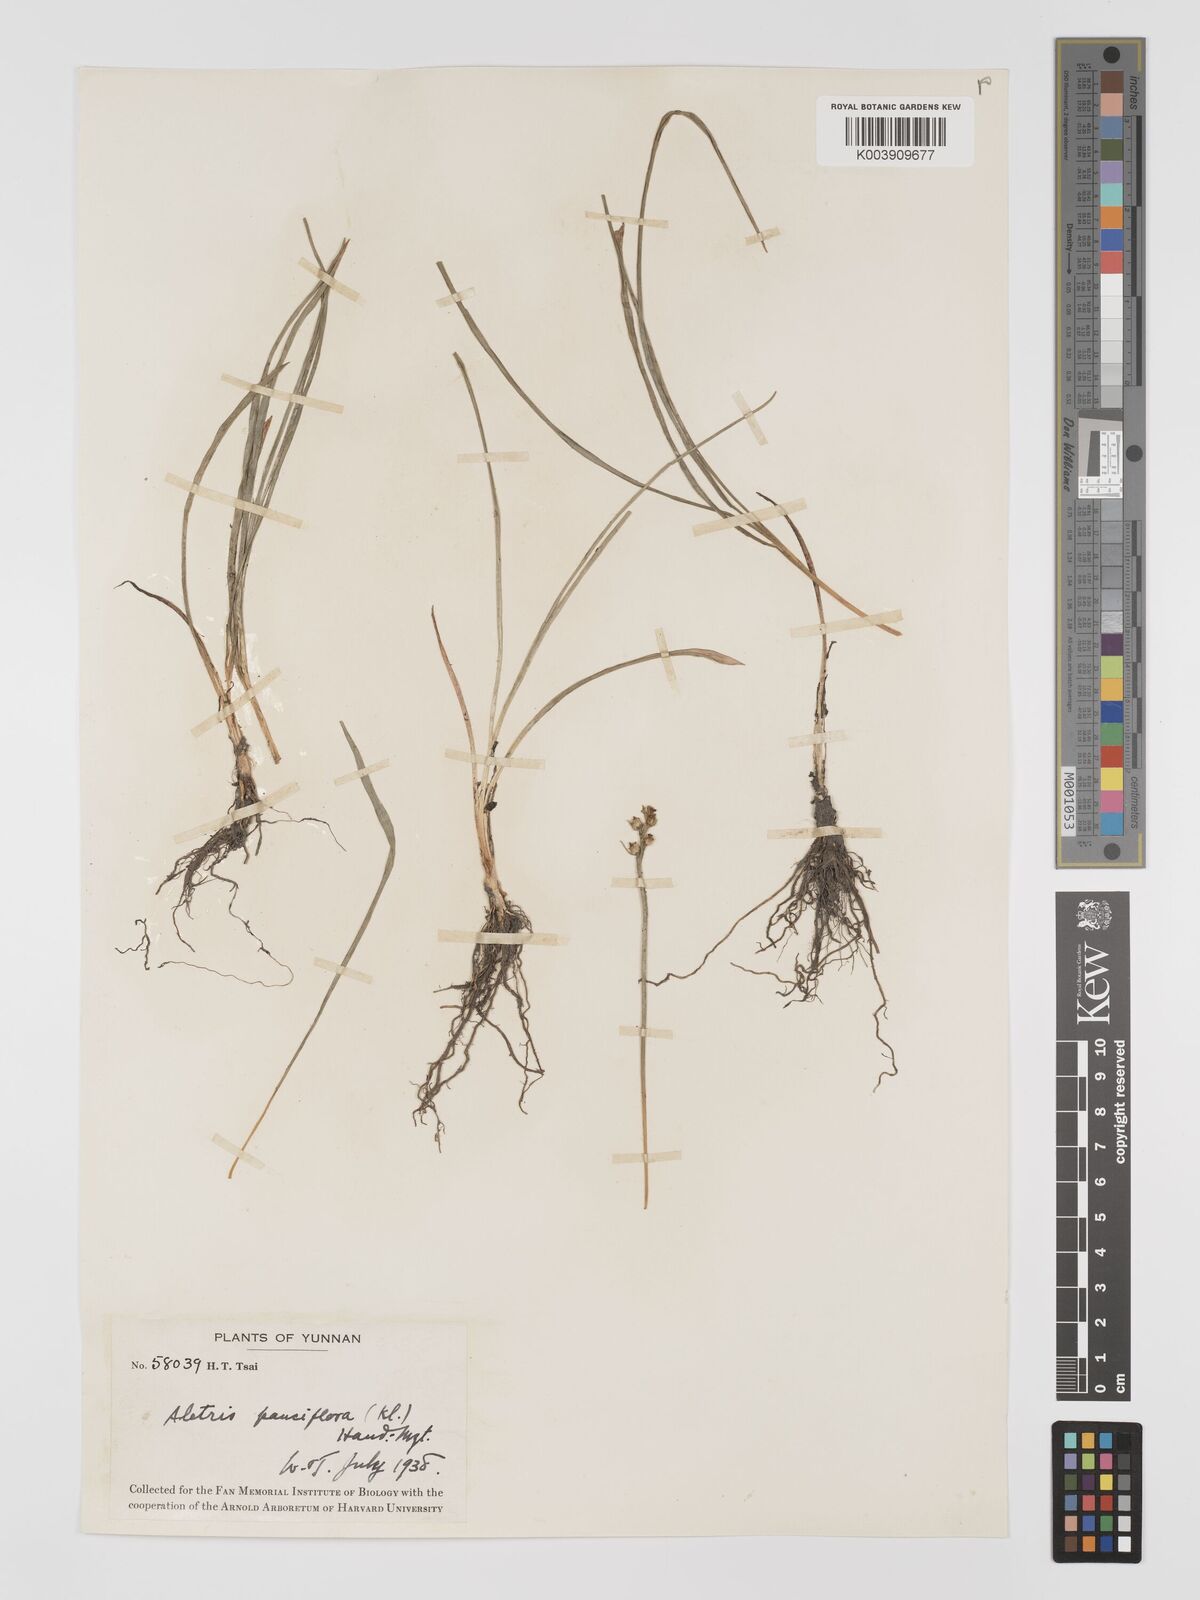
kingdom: Plantae
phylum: Tracheophyta
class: Liliopsida
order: Dioscoreales
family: Nartheciaceae
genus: Aletris
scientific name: Aletris pauciflora
